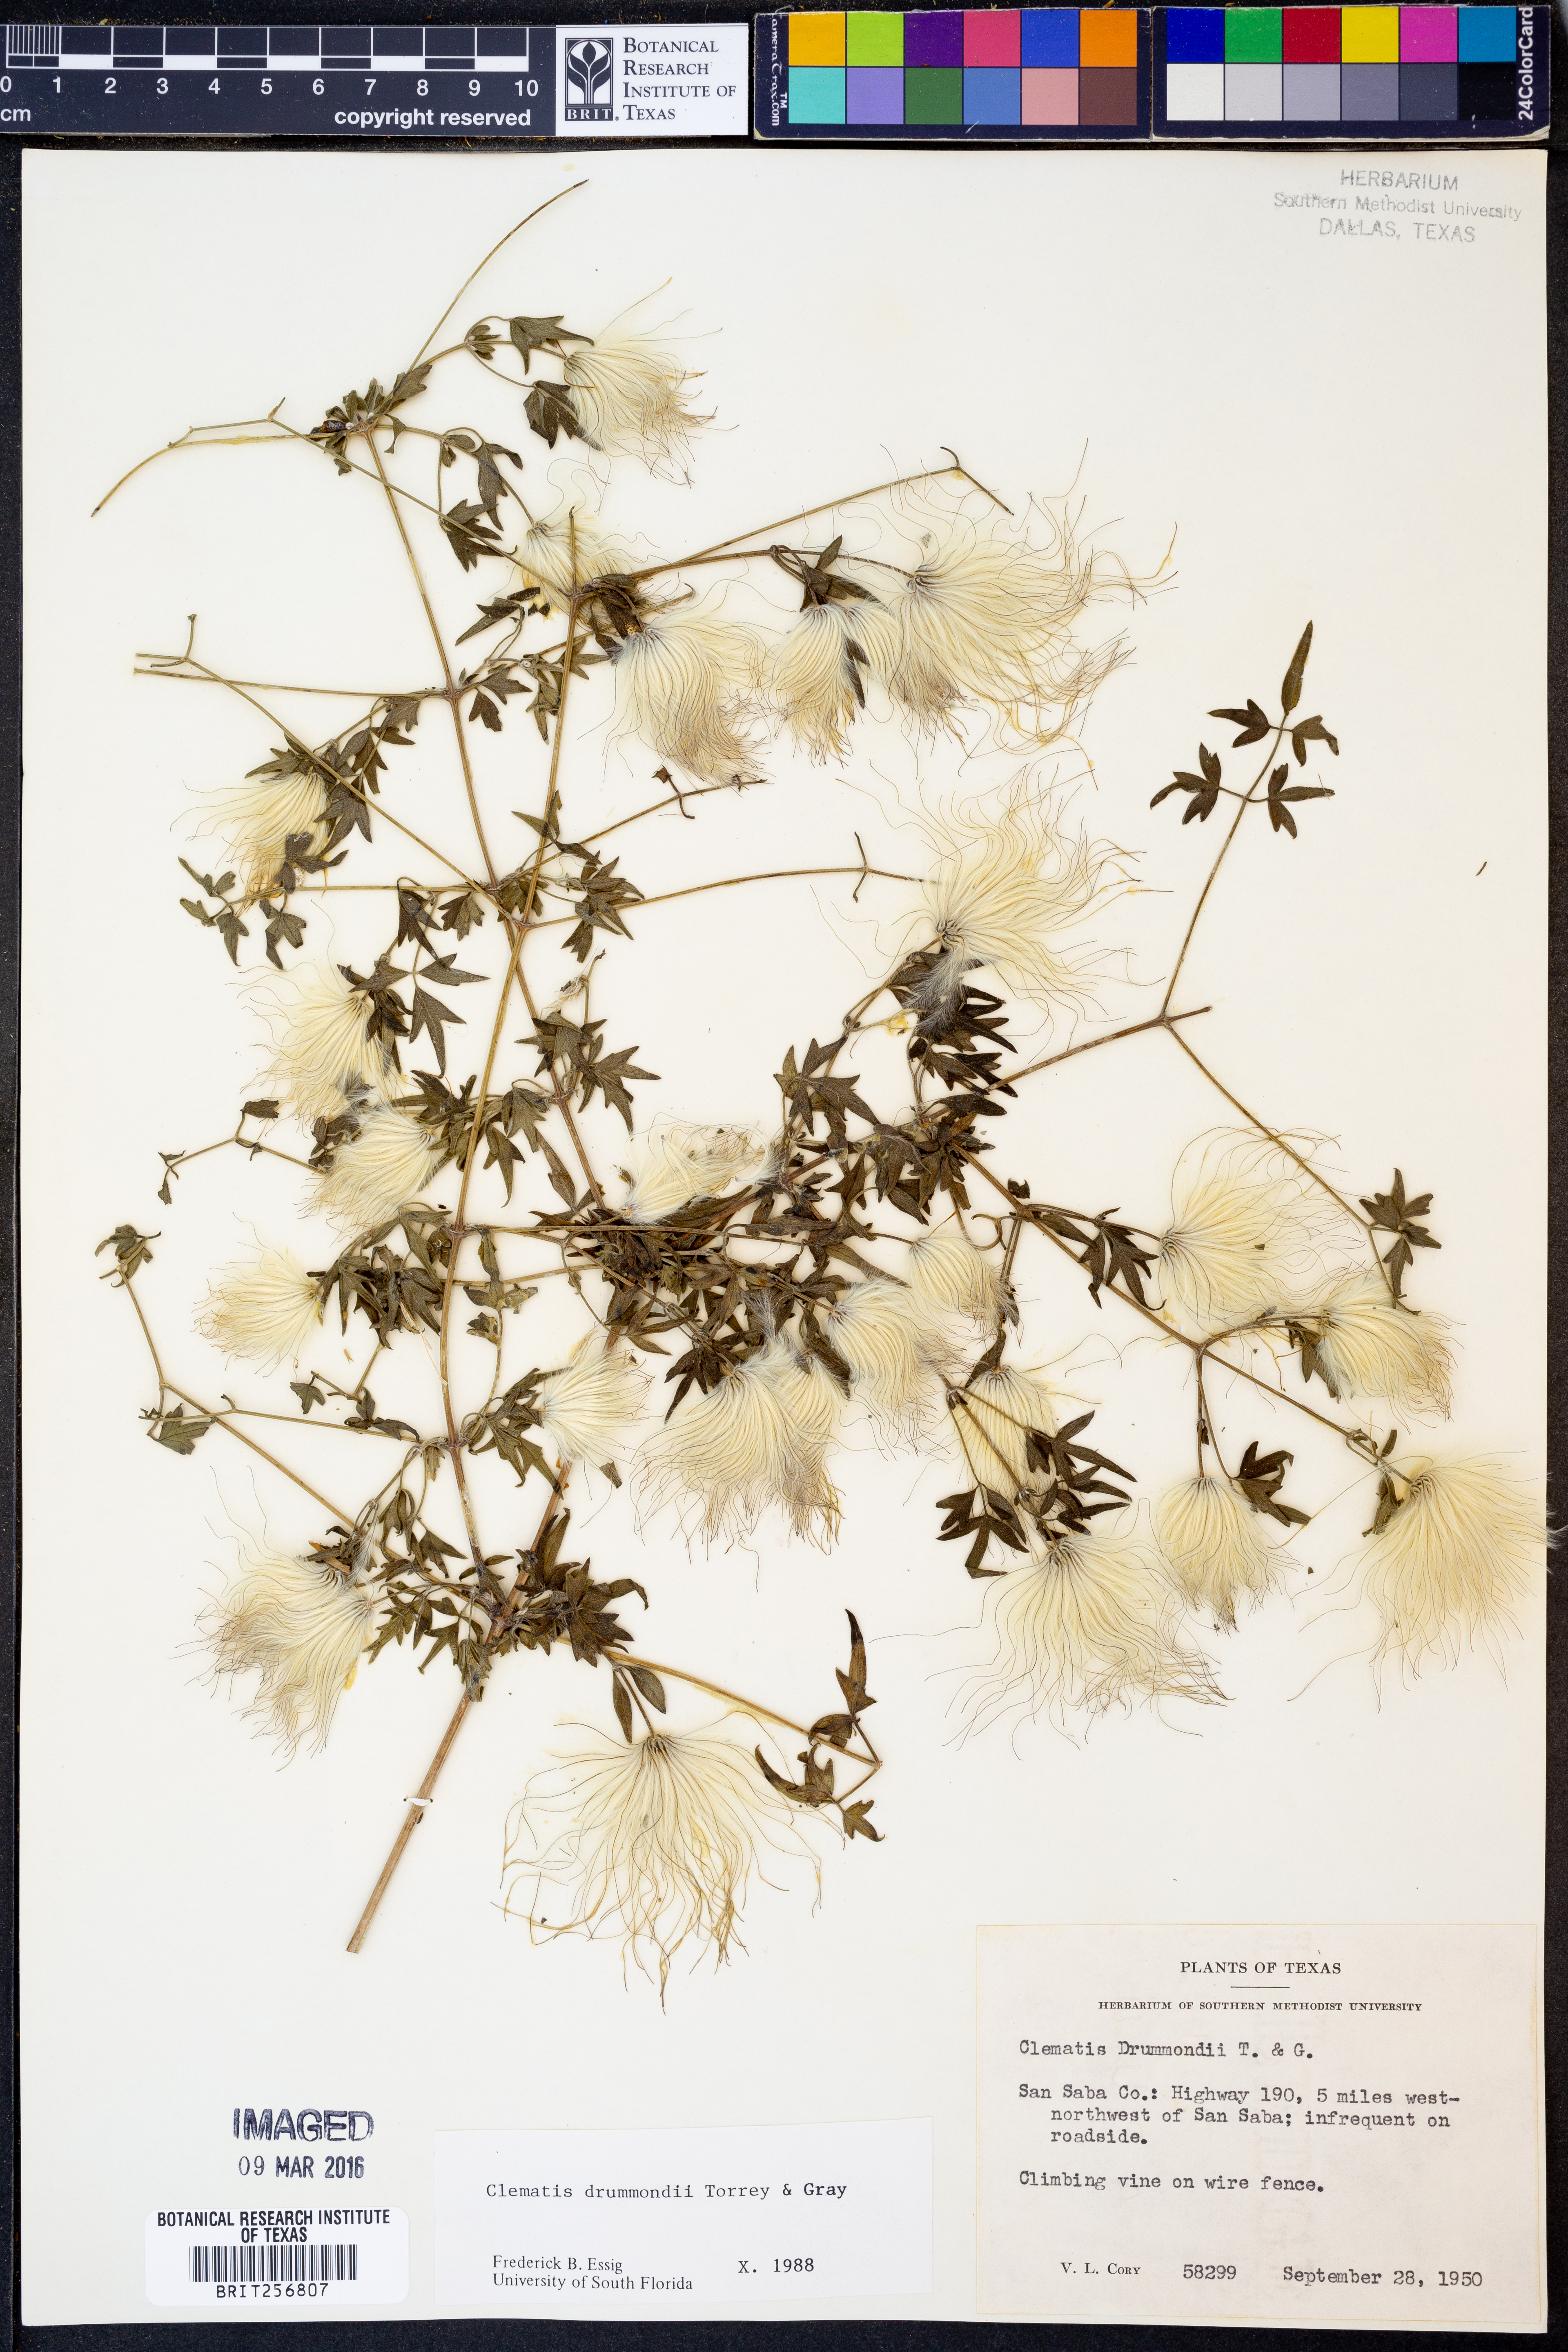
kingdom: Plantae
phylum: Tracheophyta
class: Magnoliopsida
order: Ranunculales
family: Ranunculaceae
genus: Clematis
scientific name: Clematis drummondii
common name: Texas virgin's bower
